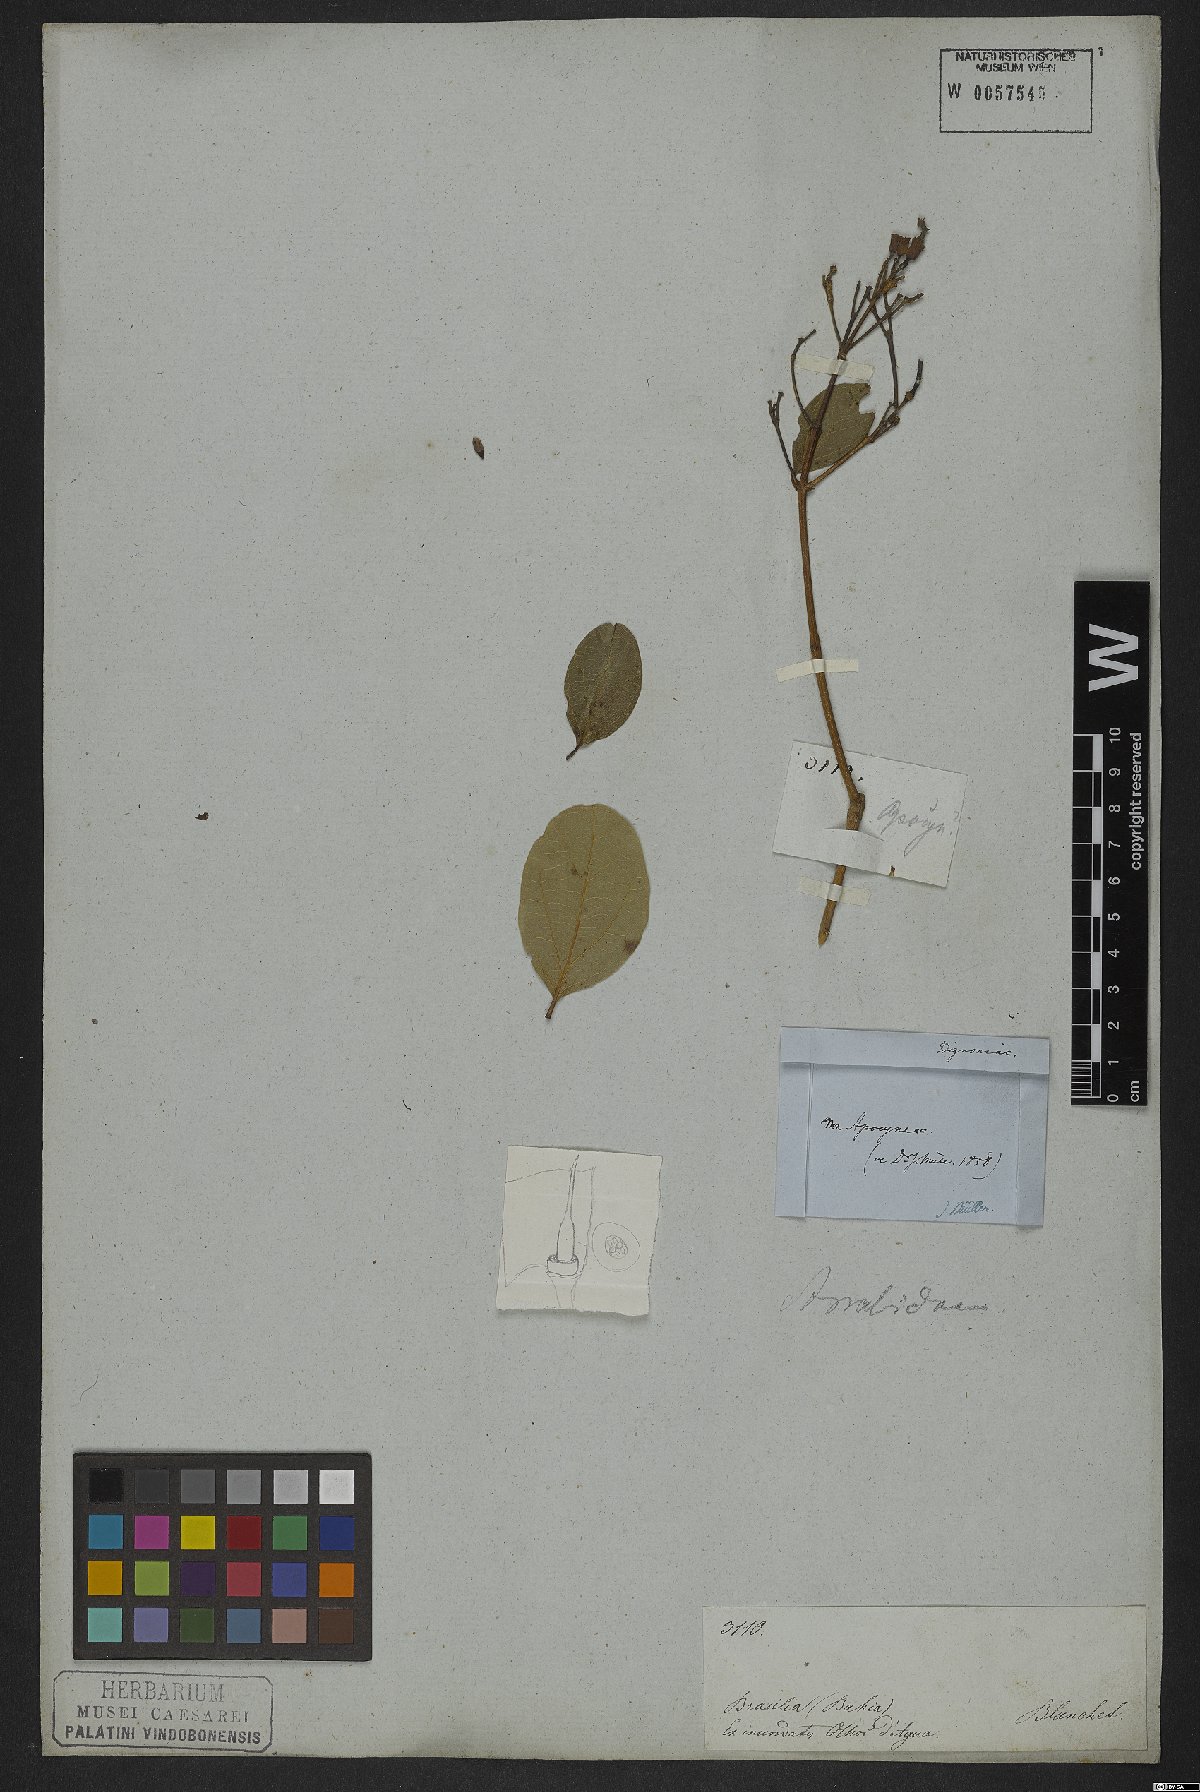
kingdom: Plantae
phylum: Tracheophyta
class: Magnoliopsida
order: Lamiales
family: Bignoniaceae
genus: Fridericia
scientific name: Fridericia platyphylla
